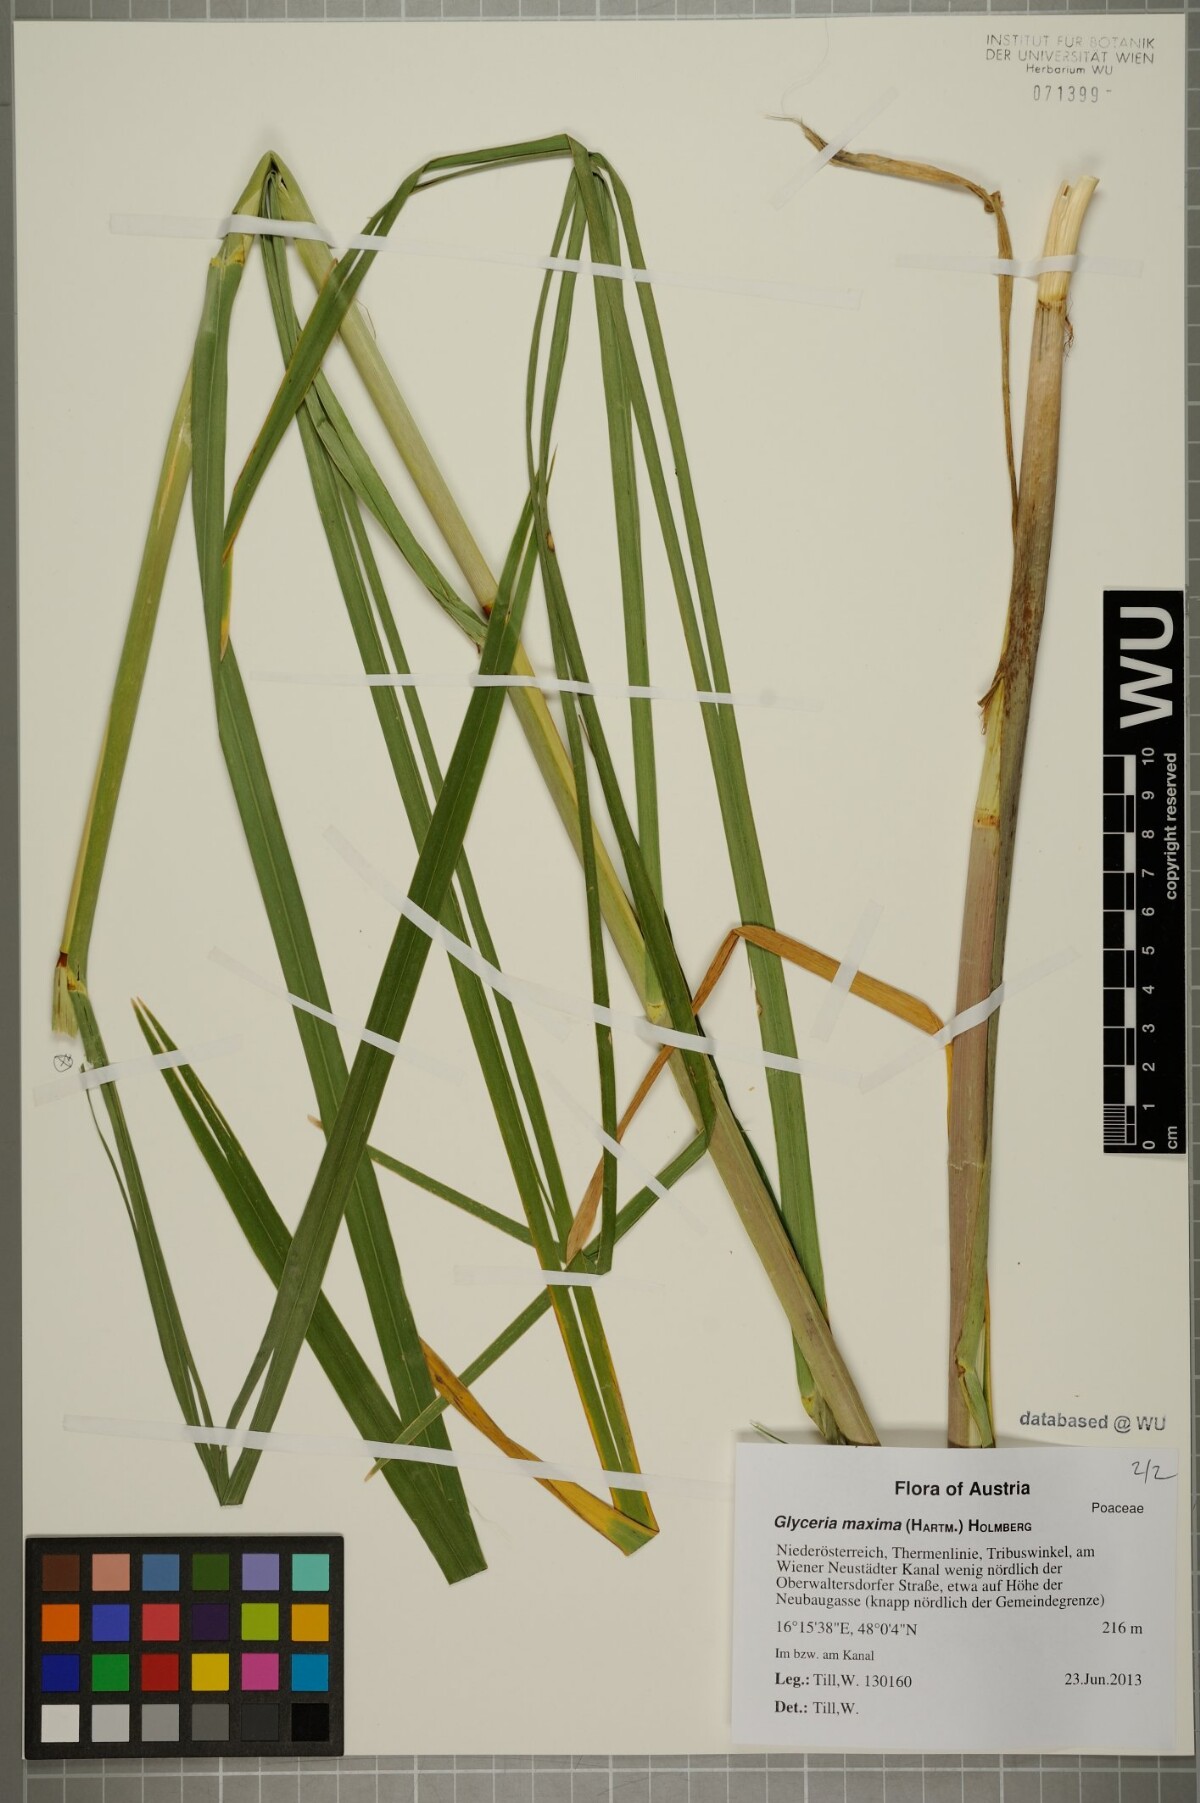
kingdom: Plantae
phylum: Tracheophyta
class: Liliopsida
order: Poales
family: Poaceae
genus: Glyceria
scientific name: Glyceria maxima
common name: Reed mannagrass
